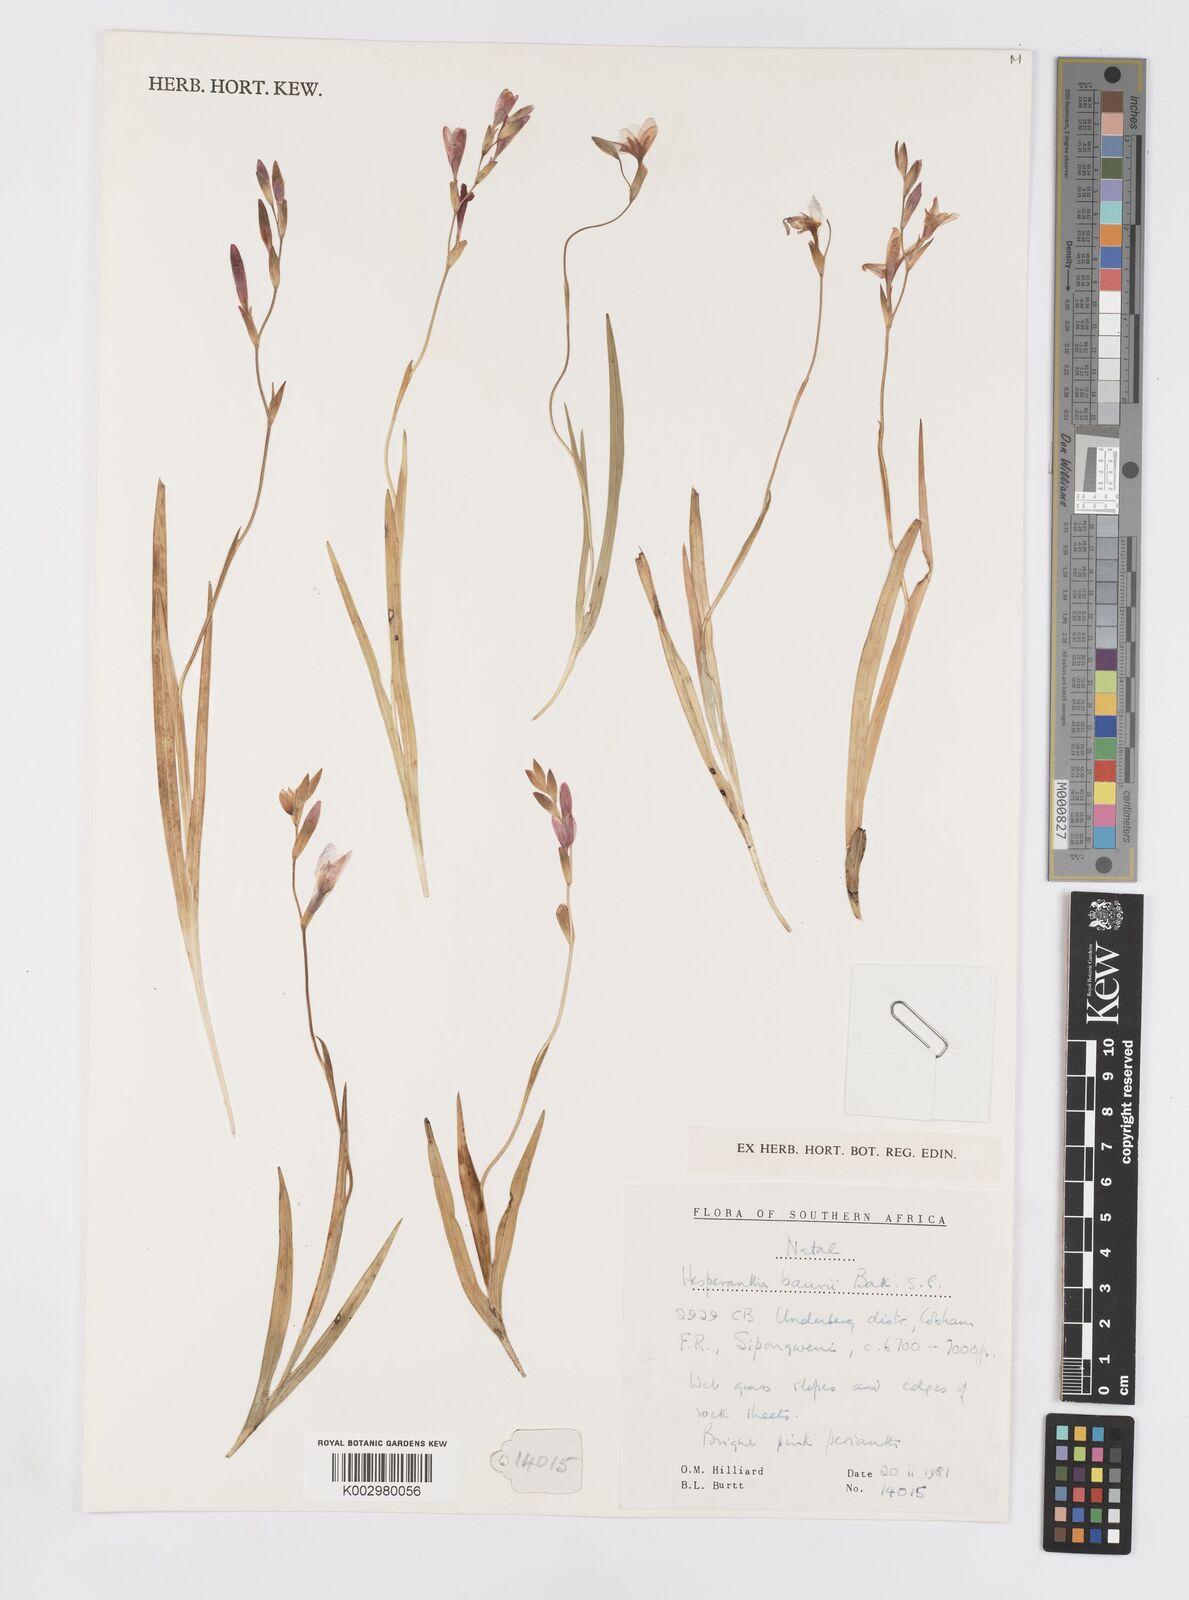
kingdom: Plantae
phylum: Tracheophyta
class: Liliopsida
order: Asparagales
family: Iridaceae
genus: Hesperantha
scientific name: Hesperantha baurii
